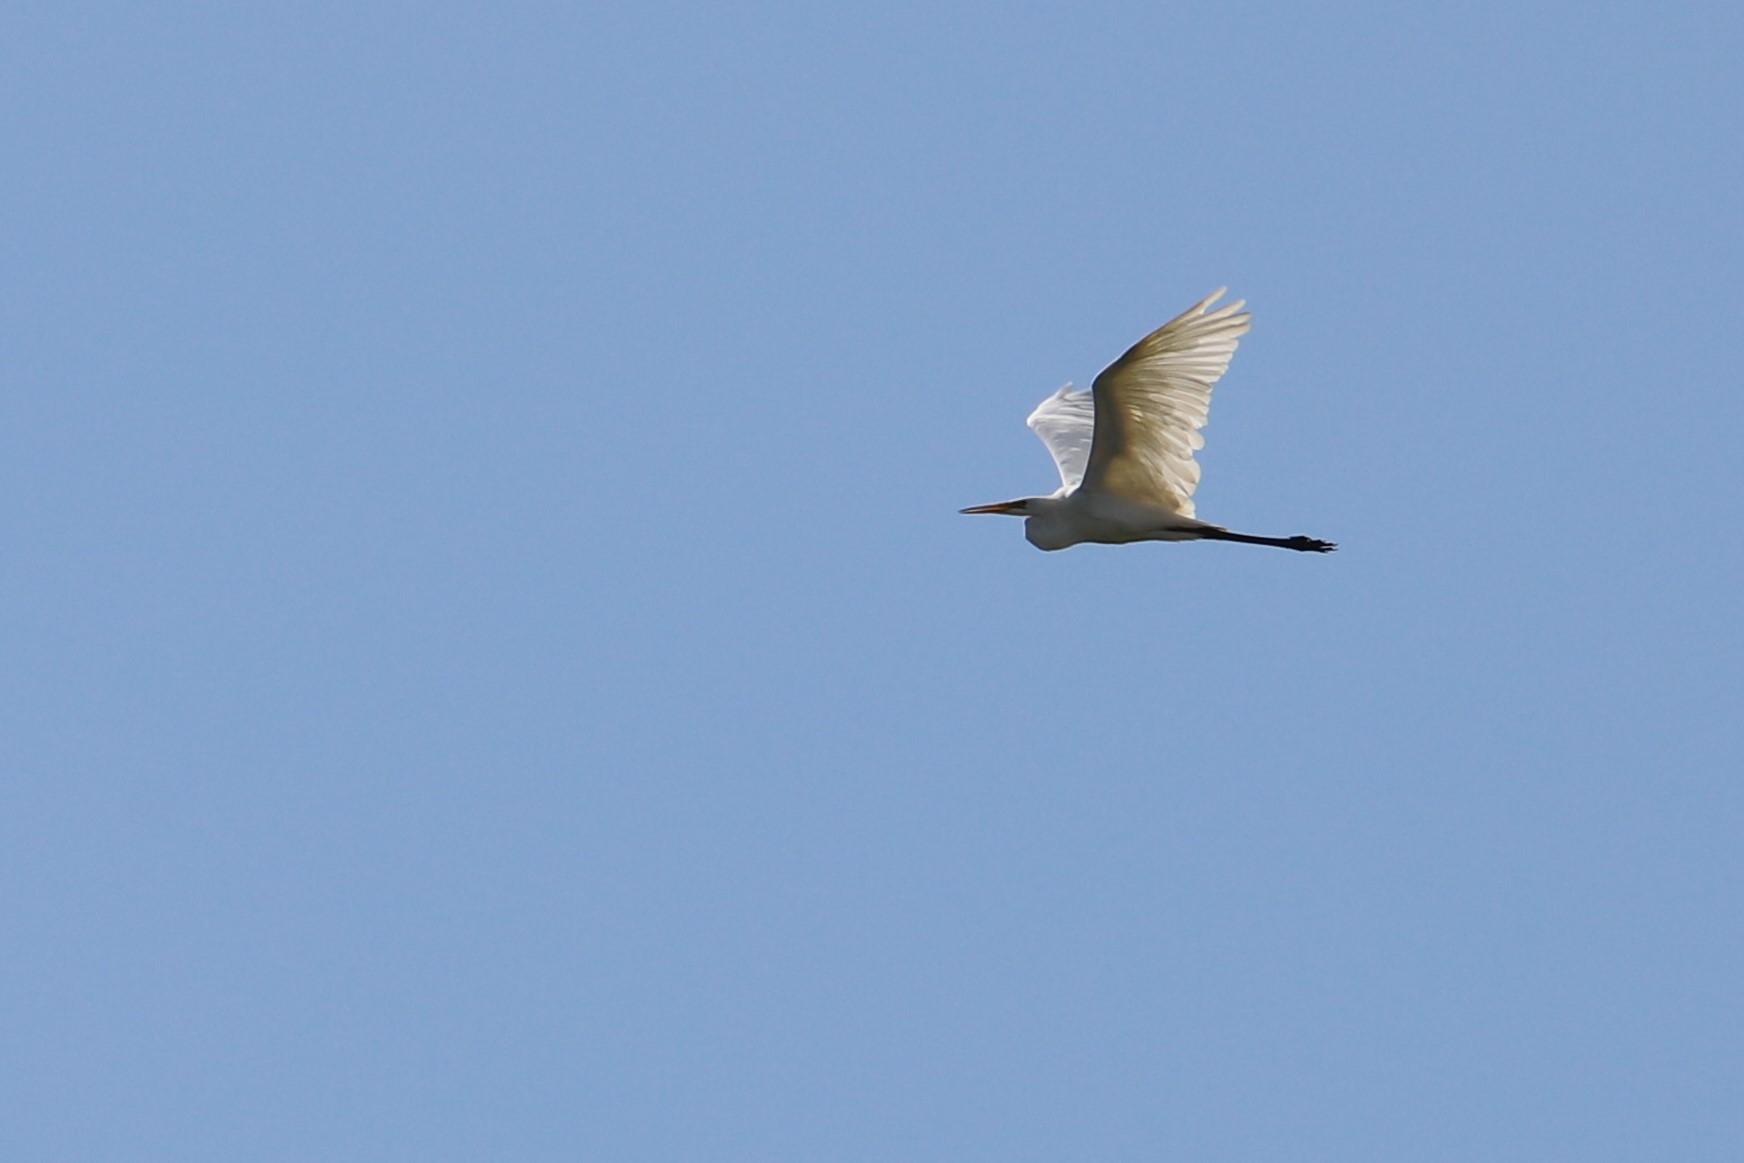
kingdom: Animalia
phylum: Chordata
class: Aves
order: Pelecaniformes
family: Ardeidae
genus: Ardea
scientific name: Ardea alba
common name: Sølvhejre
